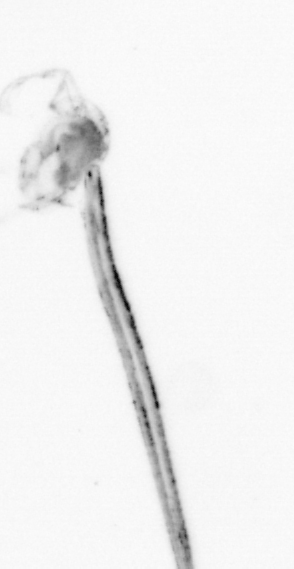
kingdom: Animalia
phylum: Chordata
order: Copelata
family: Fritillariidae
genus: Appendicularia
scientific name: Appendicularia
